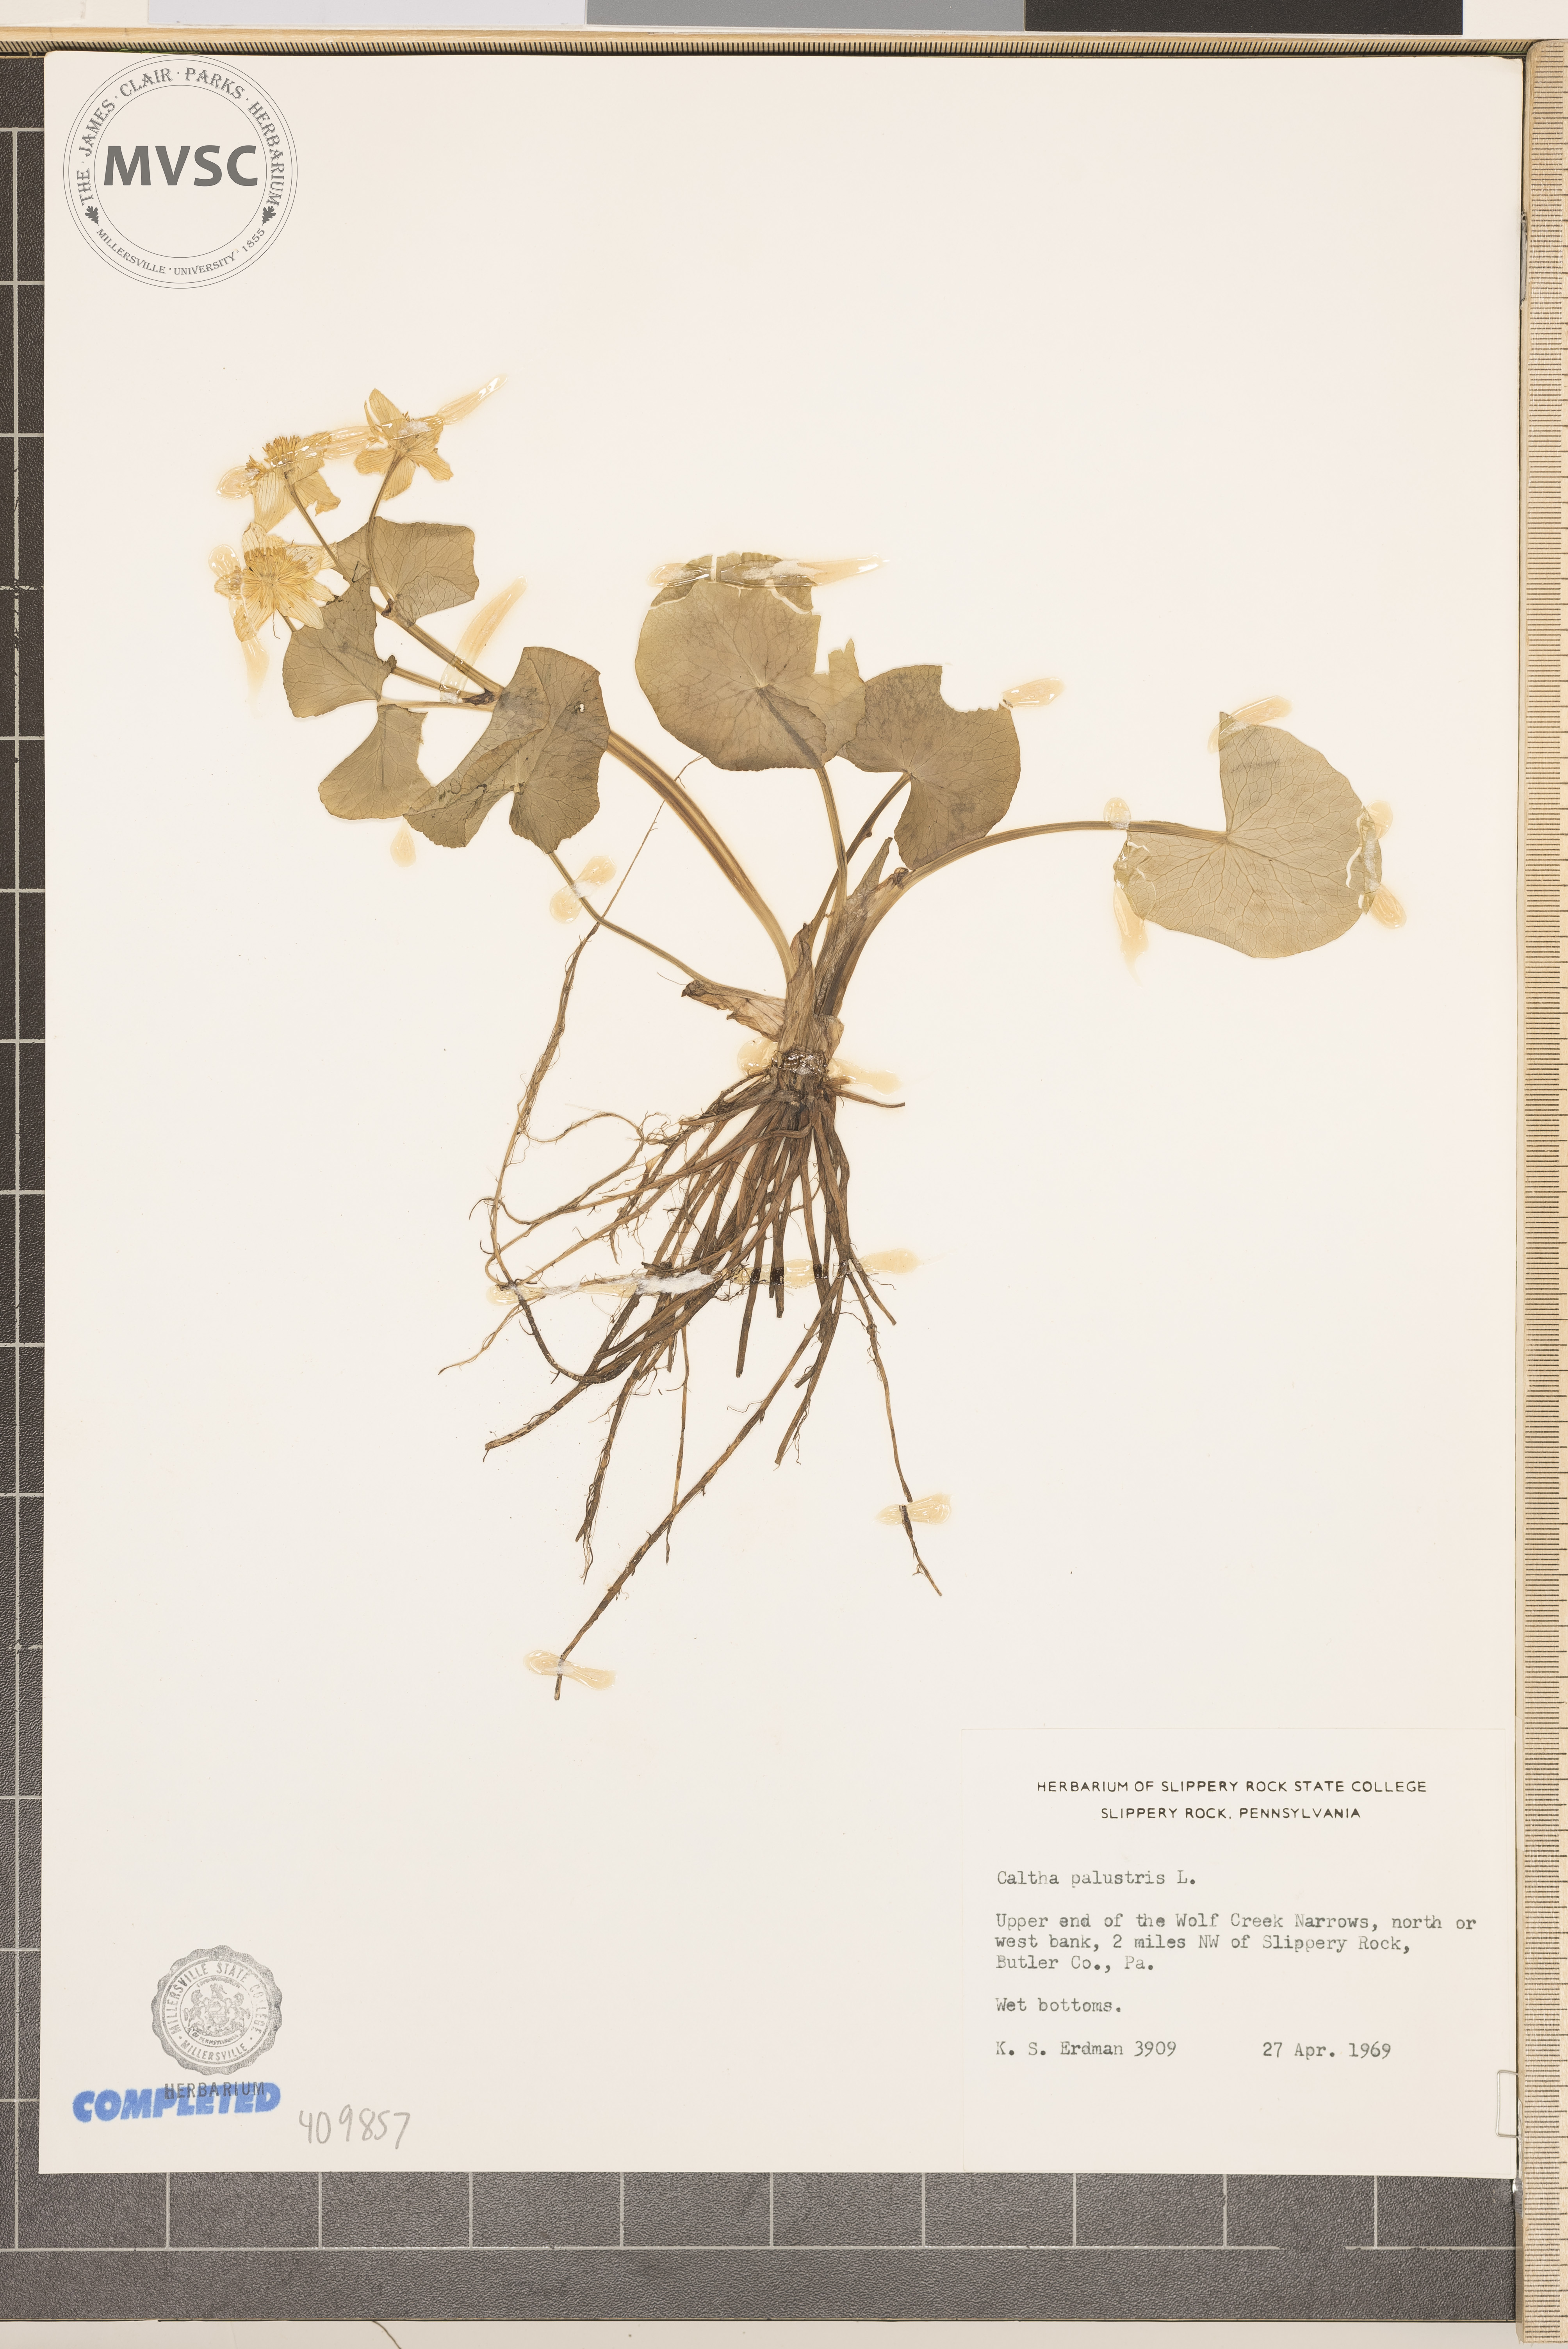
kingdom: Plantae
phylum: Tracheophyta
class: Magnoliopsida
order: Ranunculales
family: Ranunculaceae
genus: Caltha
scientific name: Caltha palustris
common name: Marsh marigold
